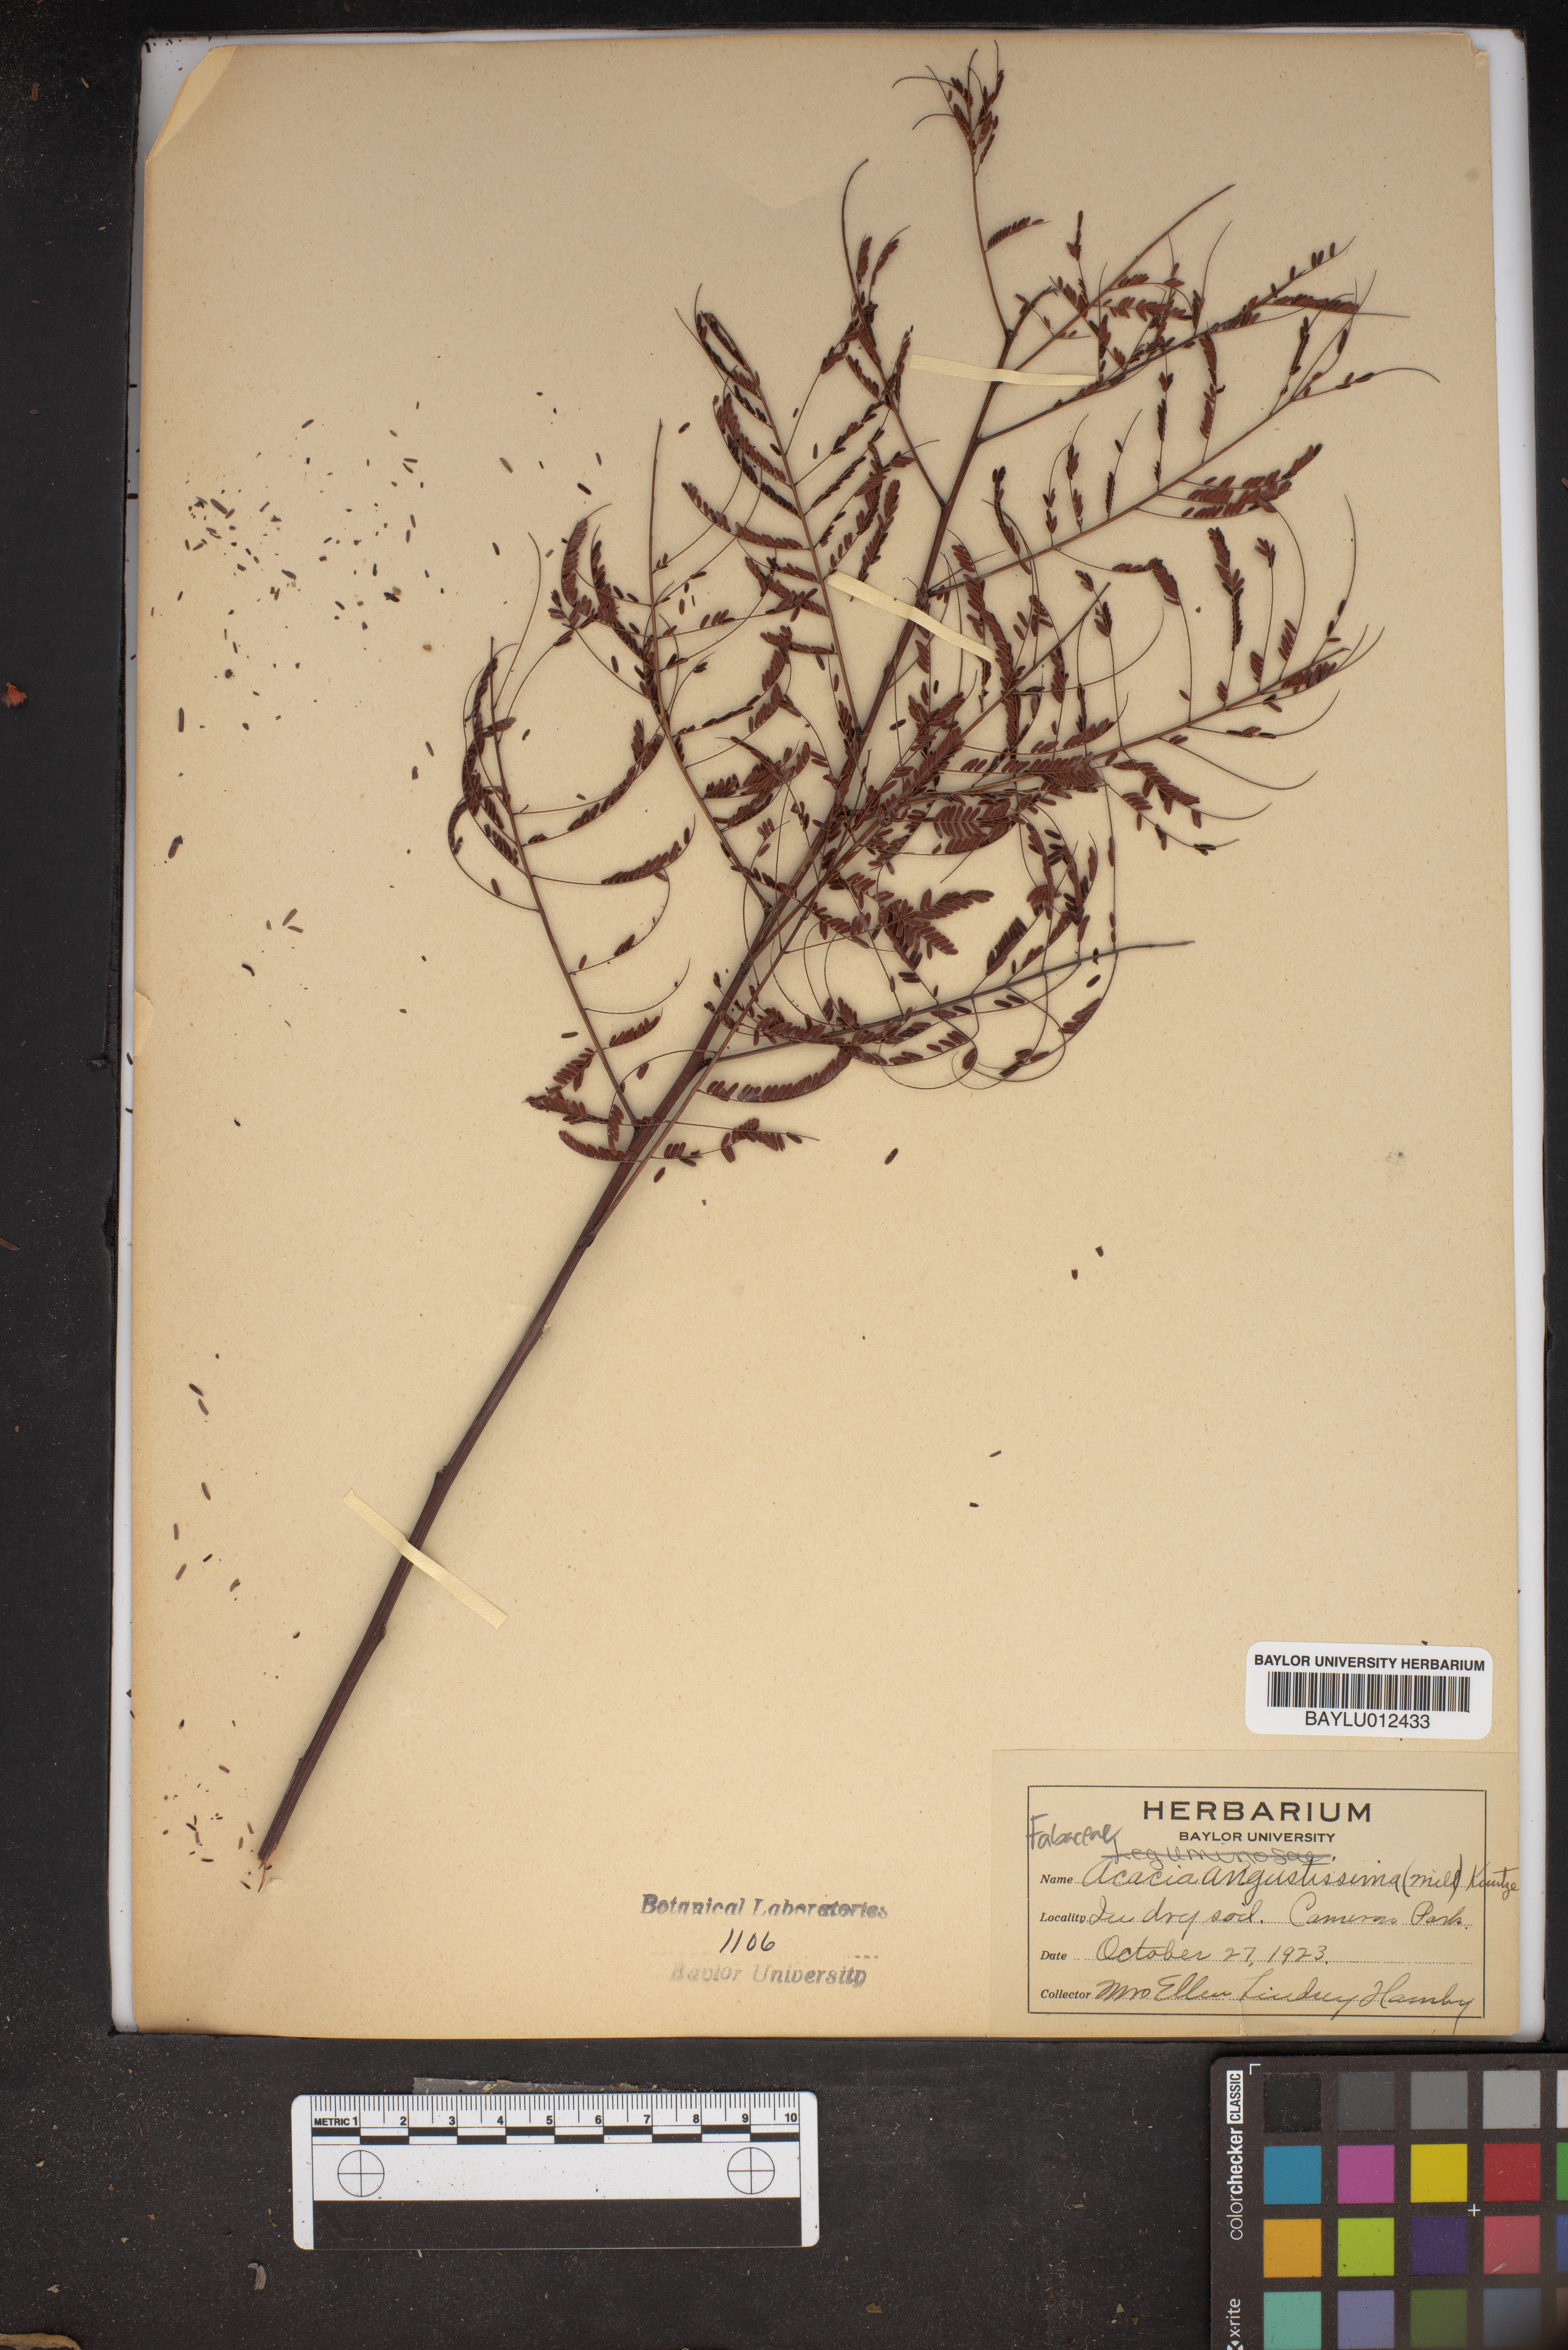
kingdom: Plantae
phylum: Tracheophyta
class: Magnoliopsida
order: Fabales
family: Fabaceae
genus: Acaciella
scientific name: Acaciella angustissima
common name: Prairie acacia
